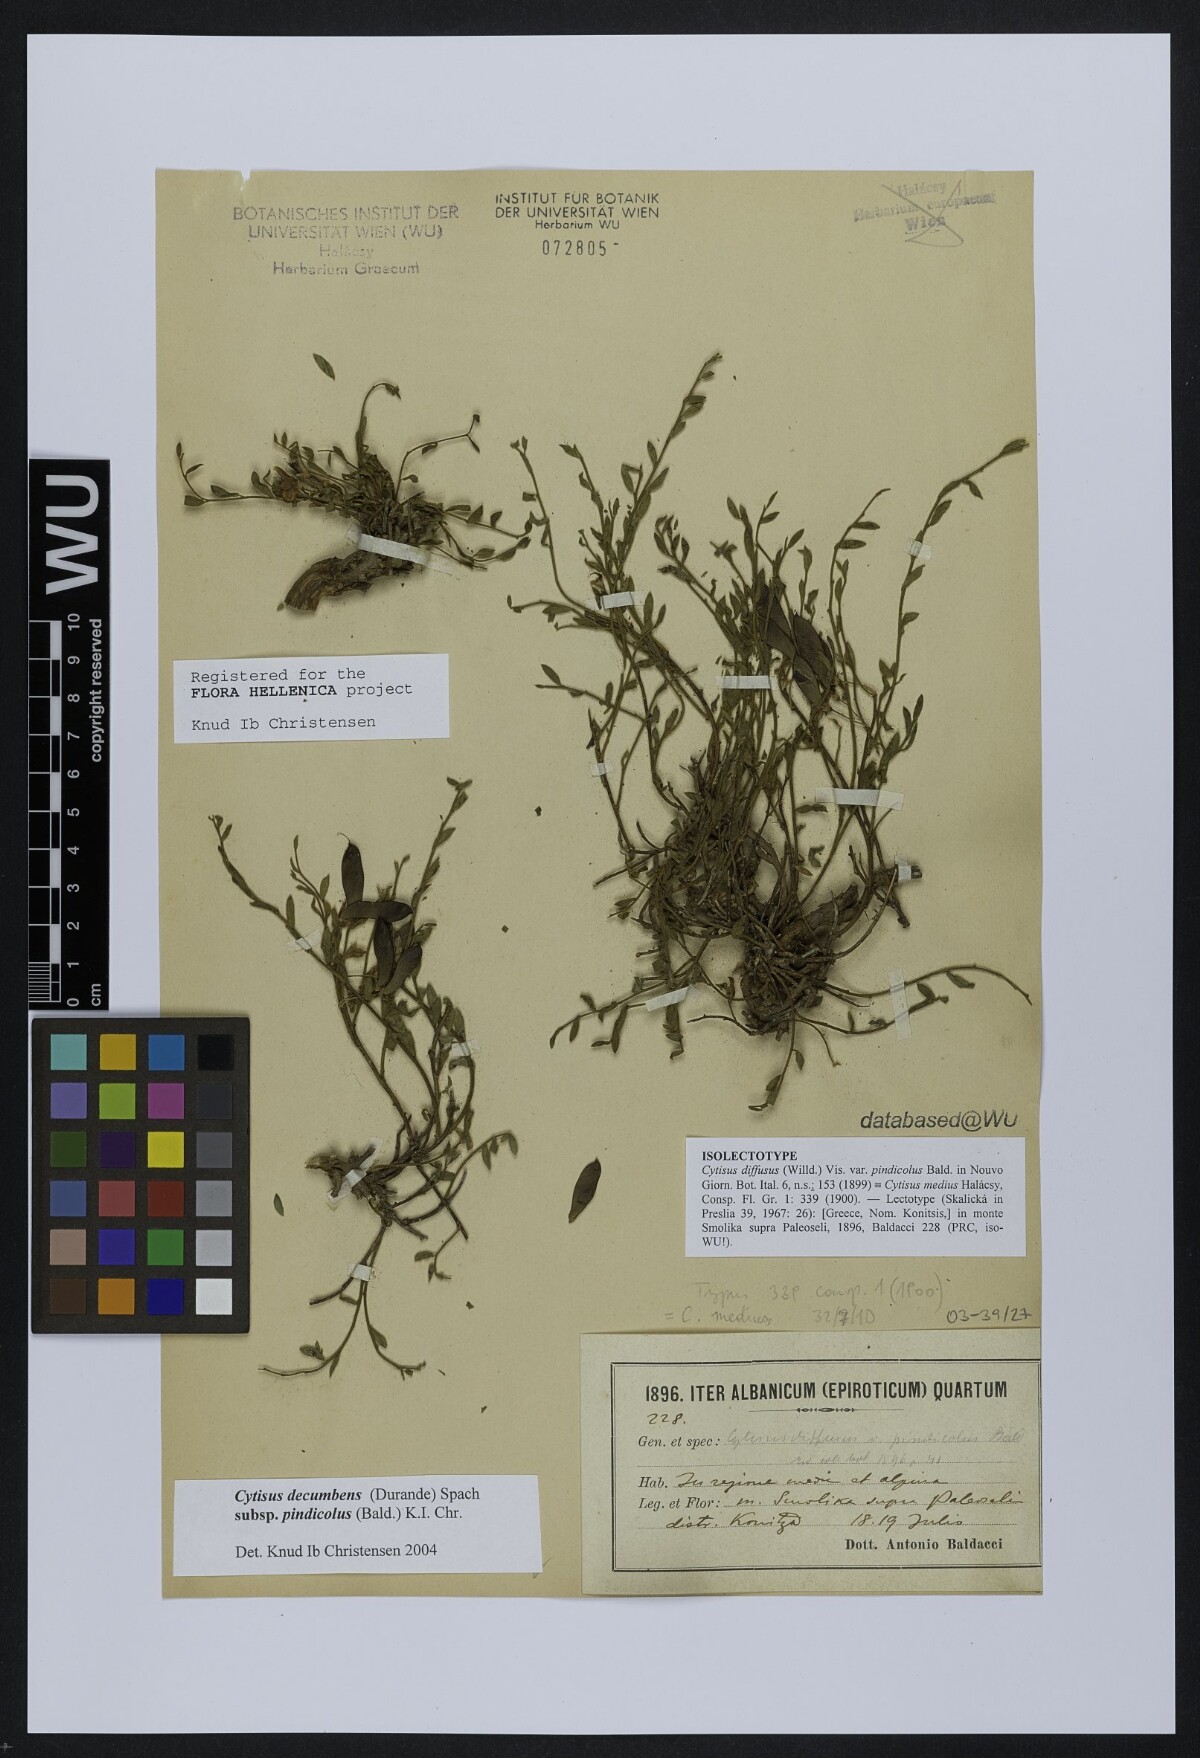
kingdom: Plantae
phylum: Tracheophyta
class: Magnoliopsida
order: Fabales
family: Fabaceae
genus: Cytisus
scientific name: Cytisus decumbens
